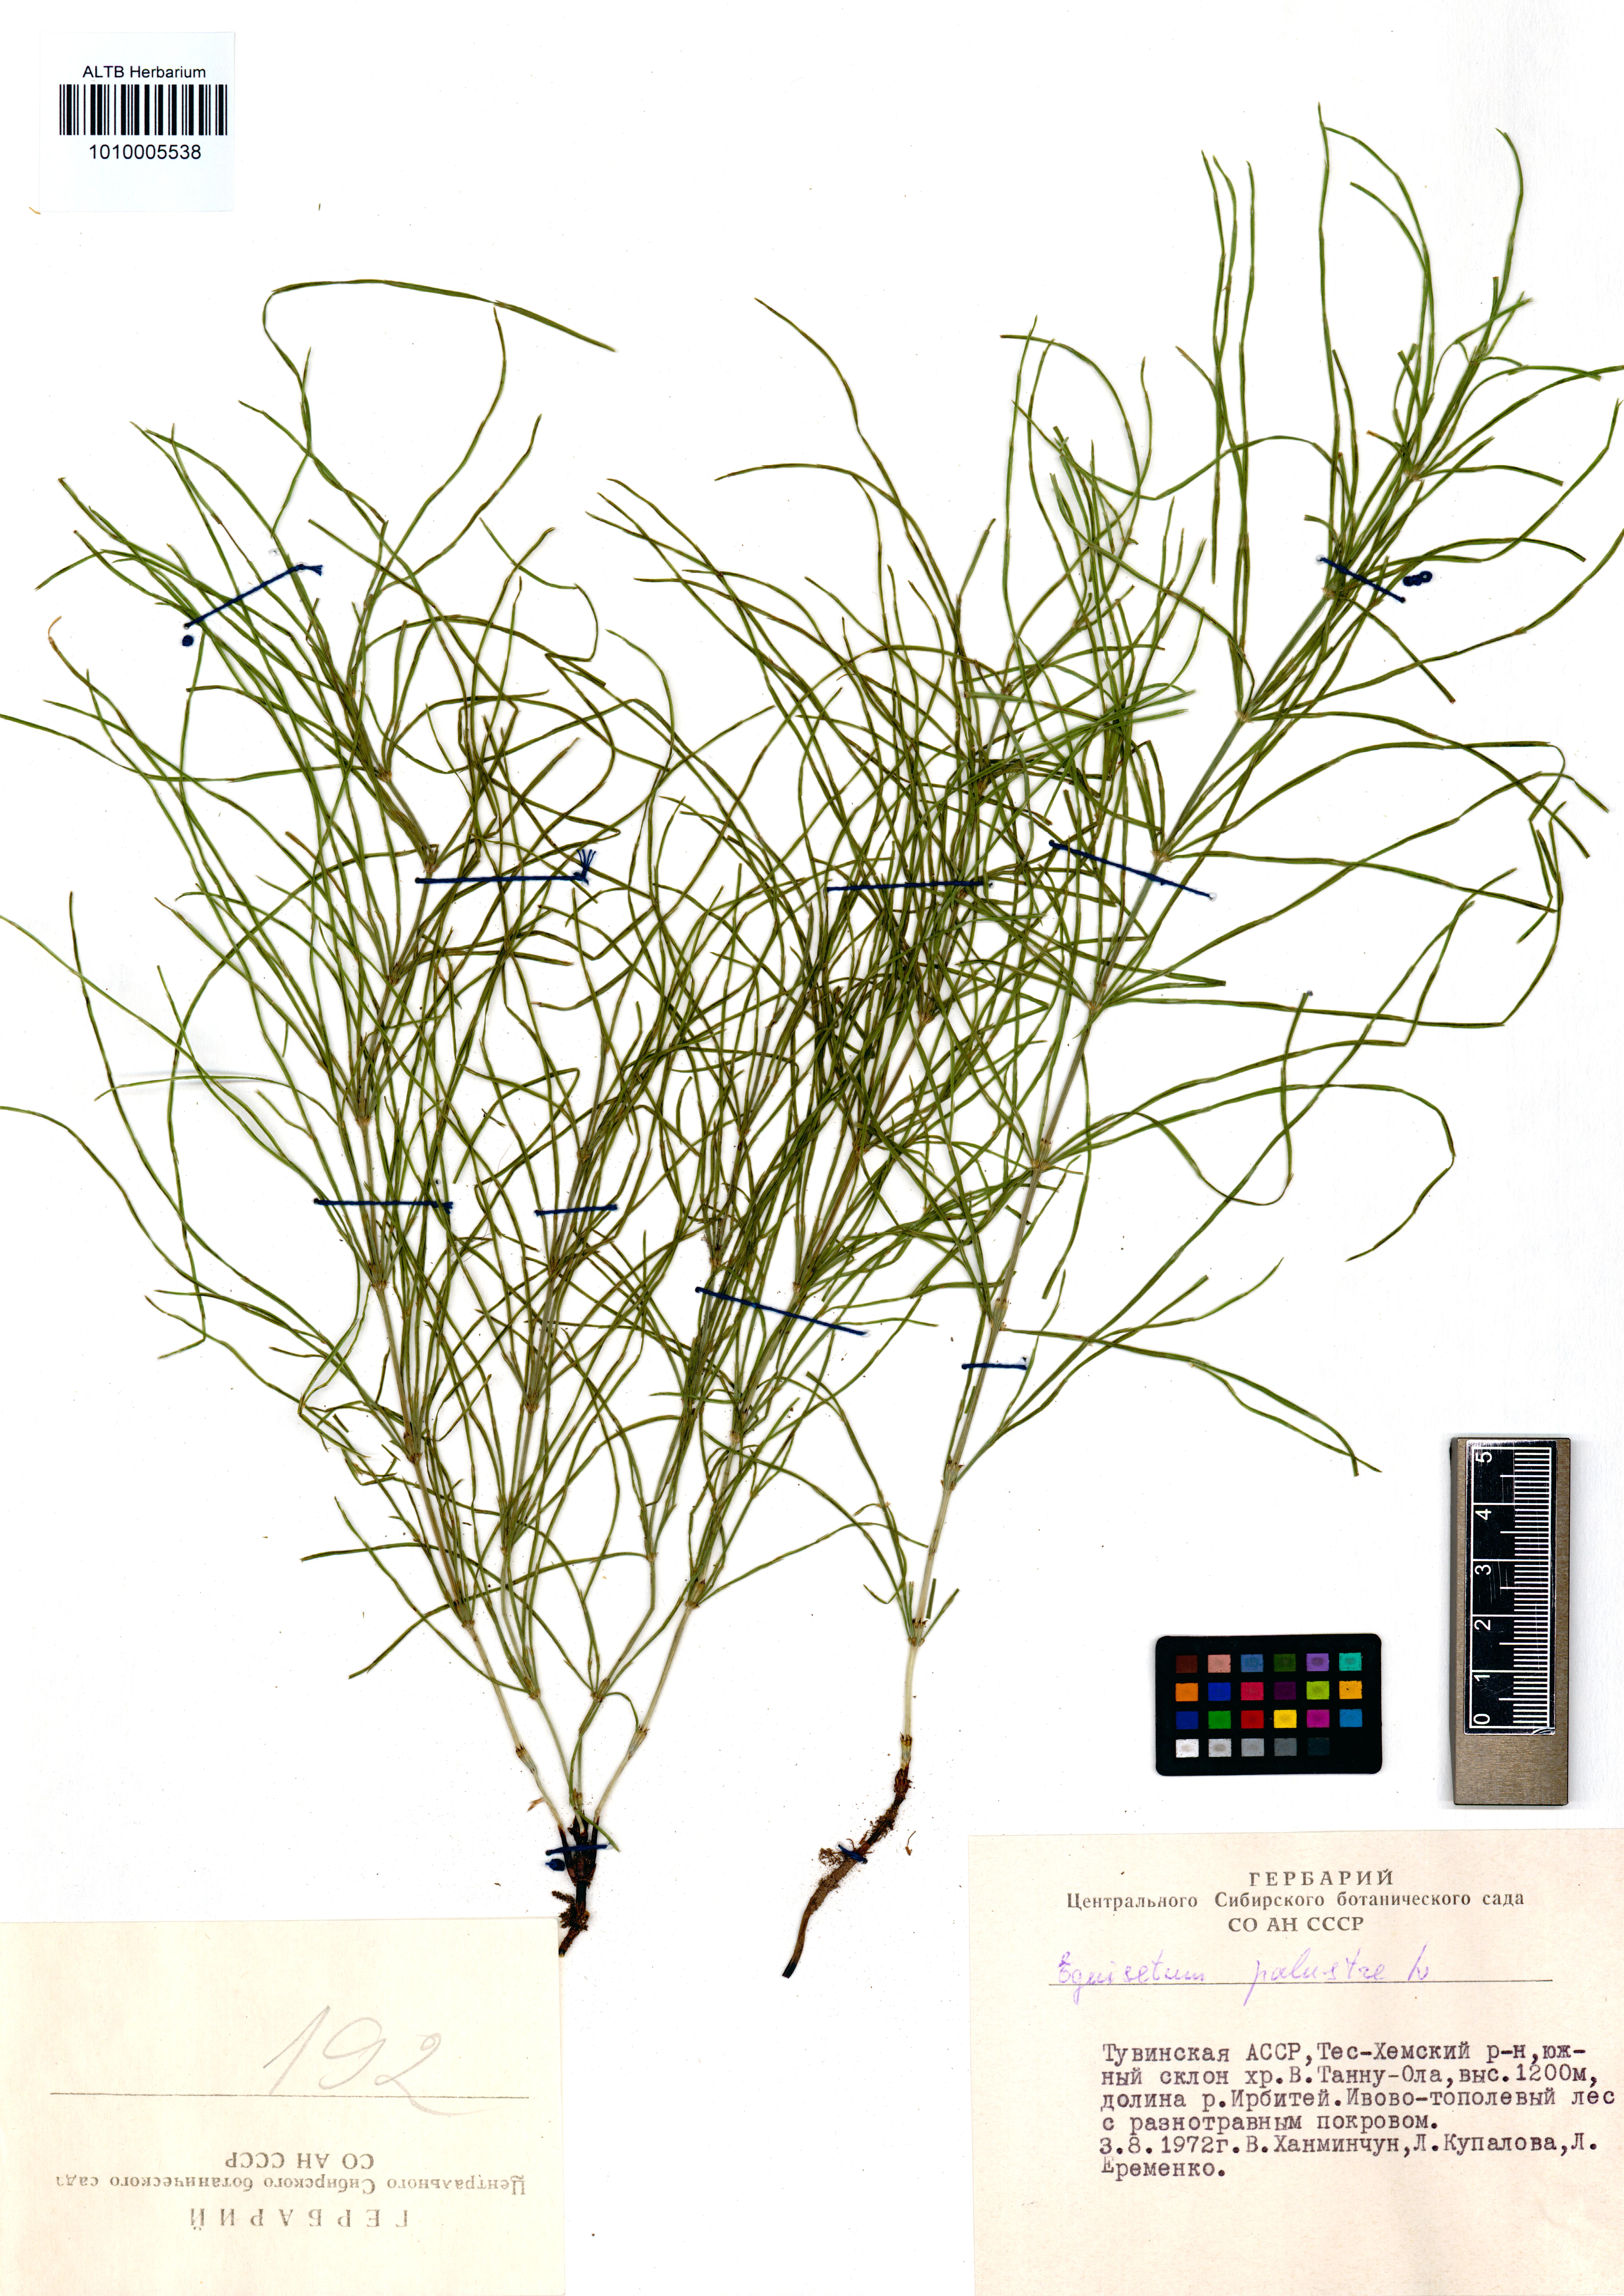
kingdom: Plantae
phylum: Tracheophyta
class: Polypodiopsida
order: Equisetales
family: Equisetaceae
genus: Equisetum
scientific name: Equisetum palustre
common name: Marsh horsetail
